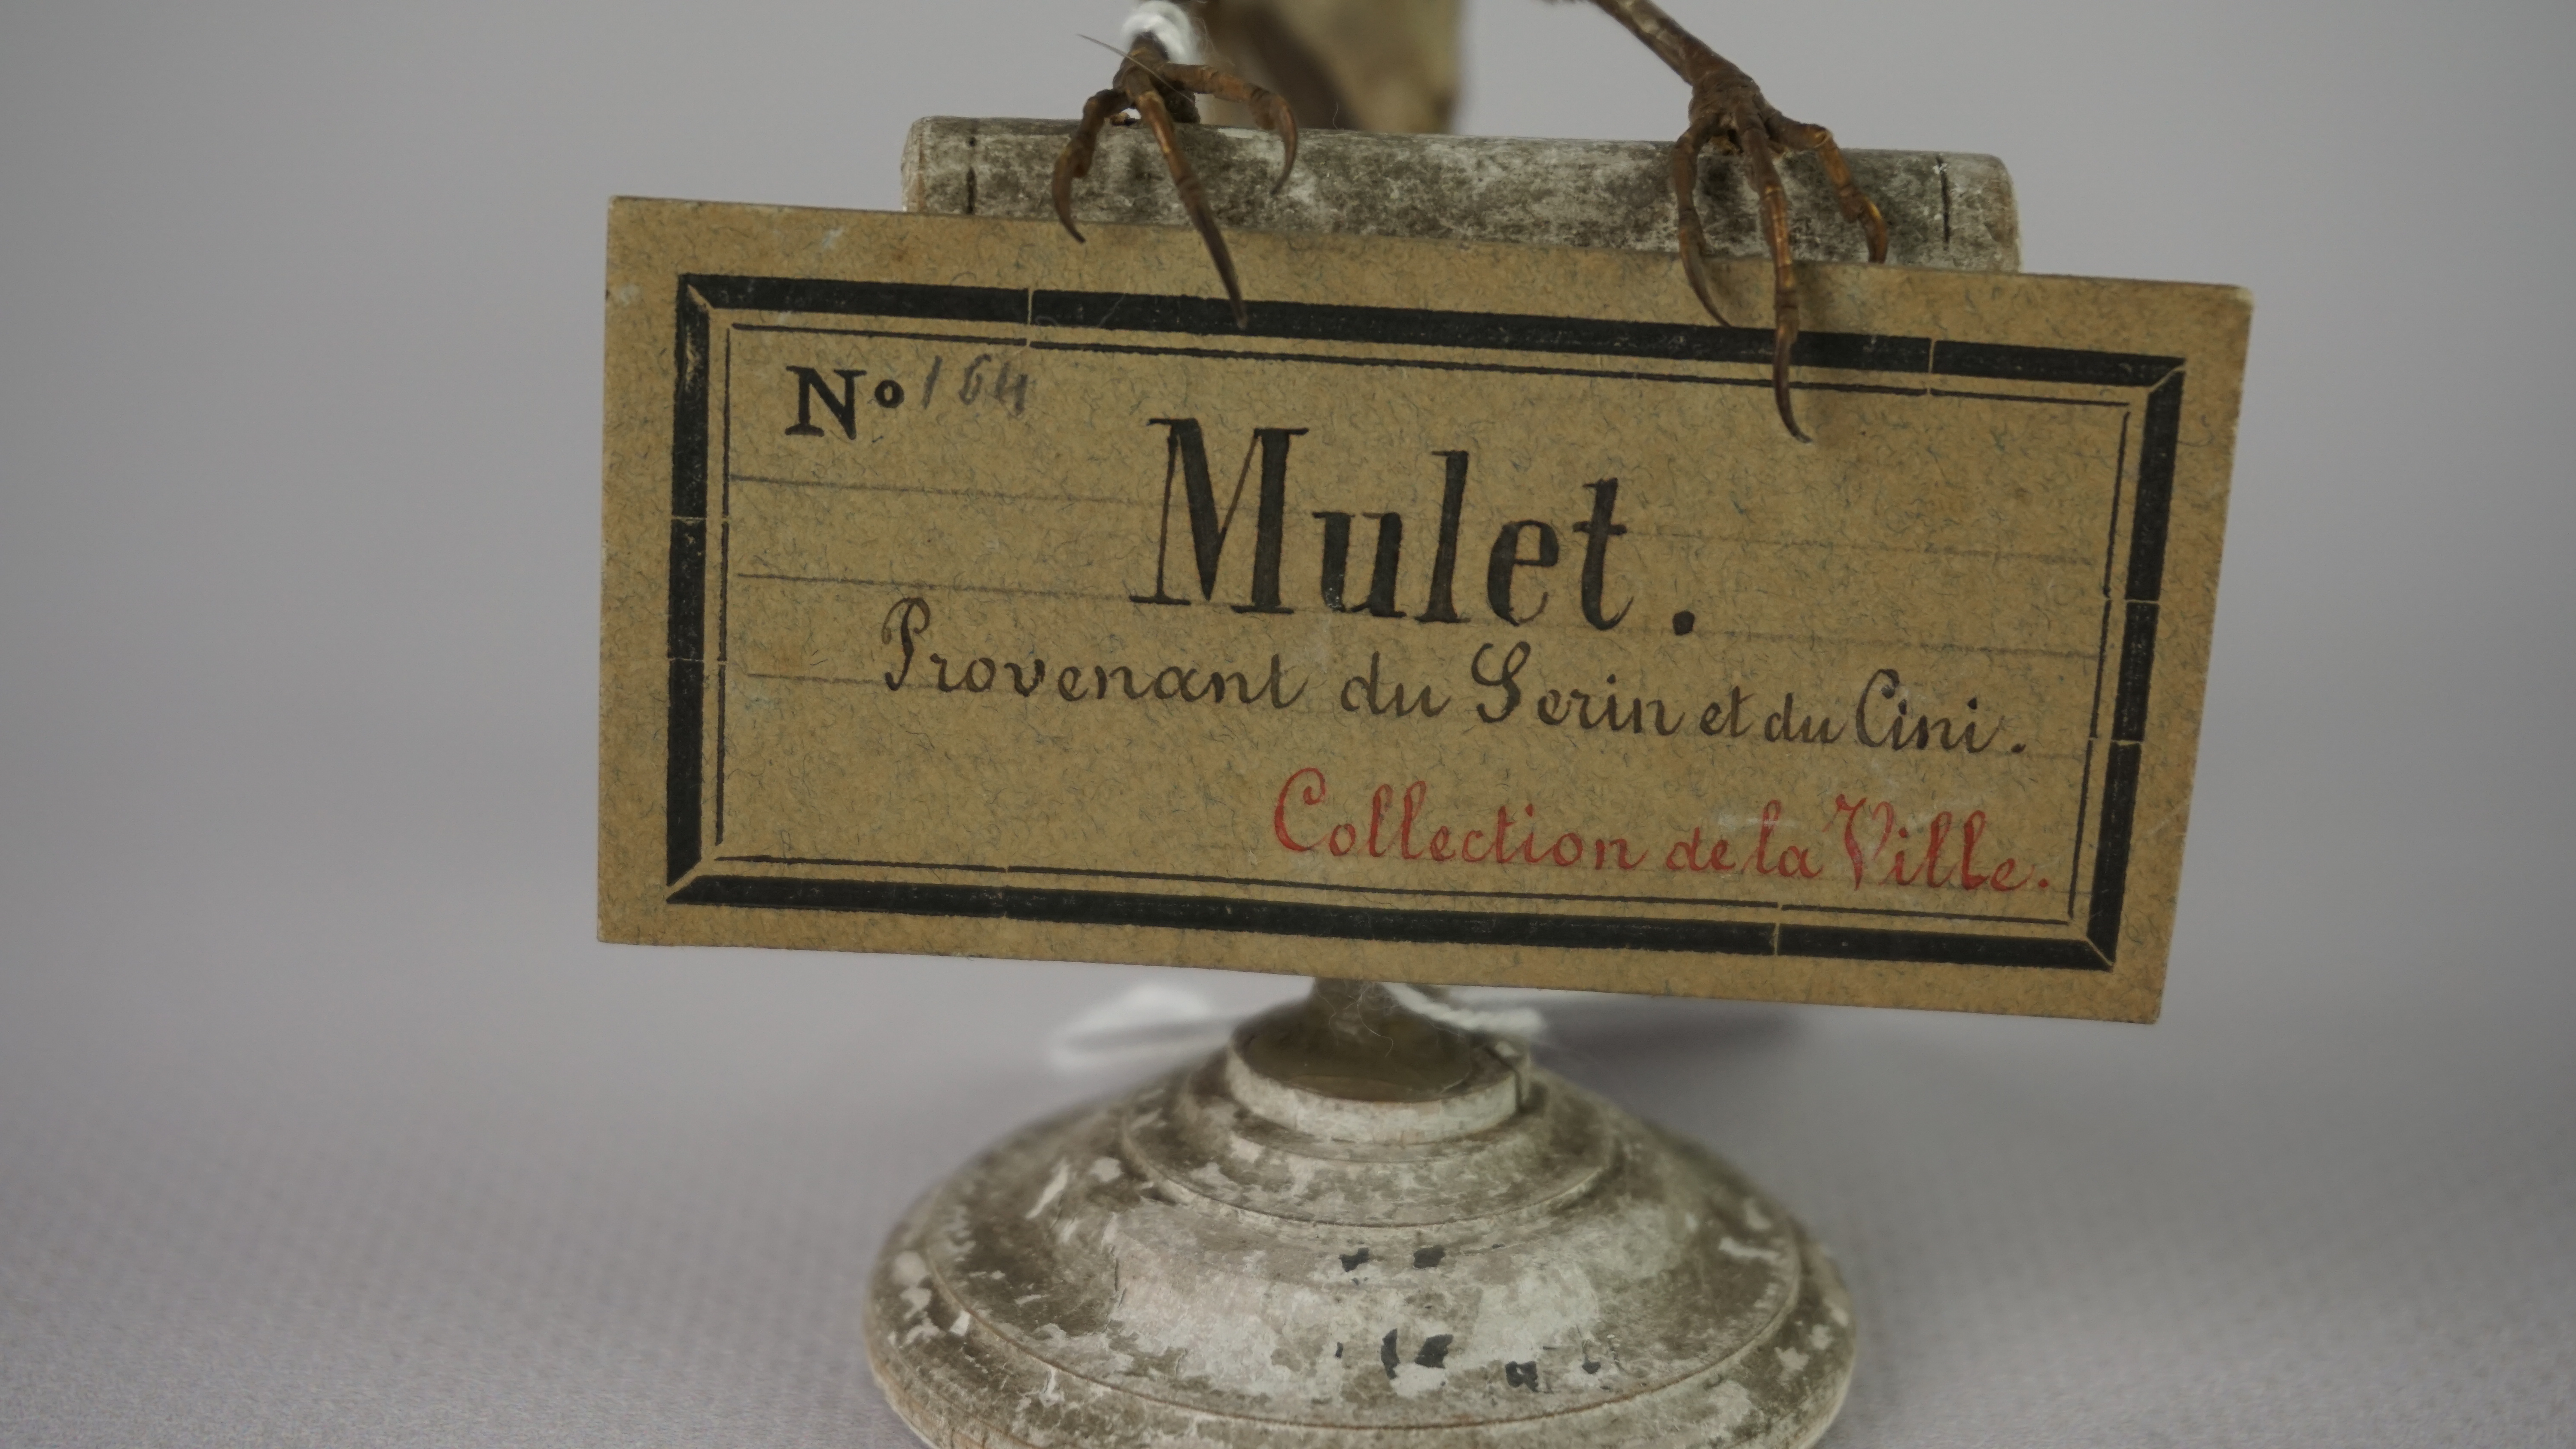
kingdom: Animalia
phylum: Chordata
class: Aves
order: Passeriformes
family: Fringillidae
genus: Serinus
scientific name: Serinus serinus
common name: European serin
